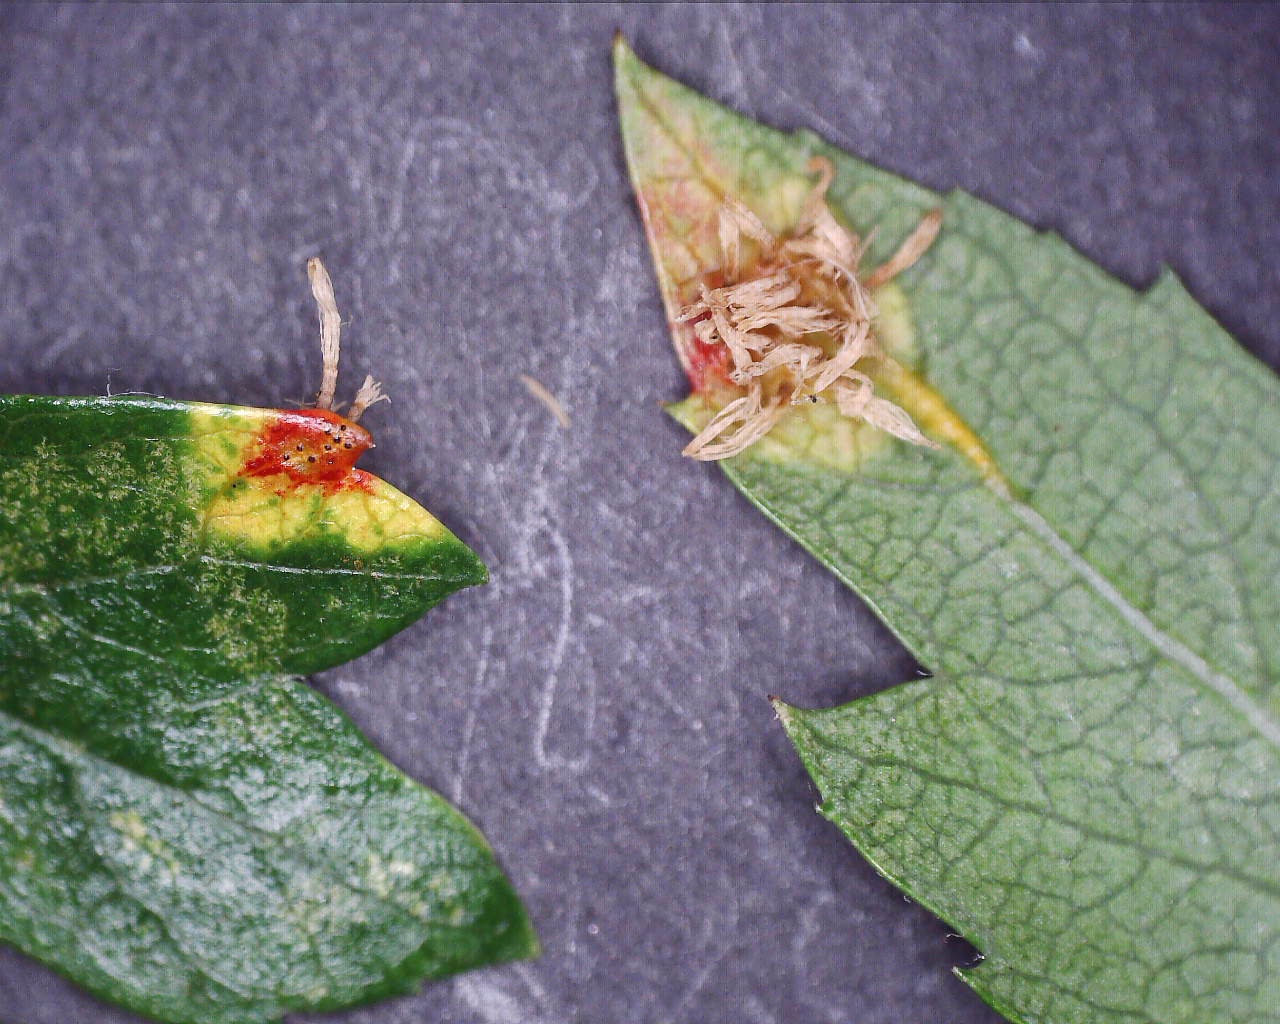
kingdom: Fungi
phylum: Basidiomycota
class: Pucciniomycetes
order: Pucciniales
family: Gymnosporangiaceae
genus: Gymnosporangium
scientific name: Gymnosporangium
